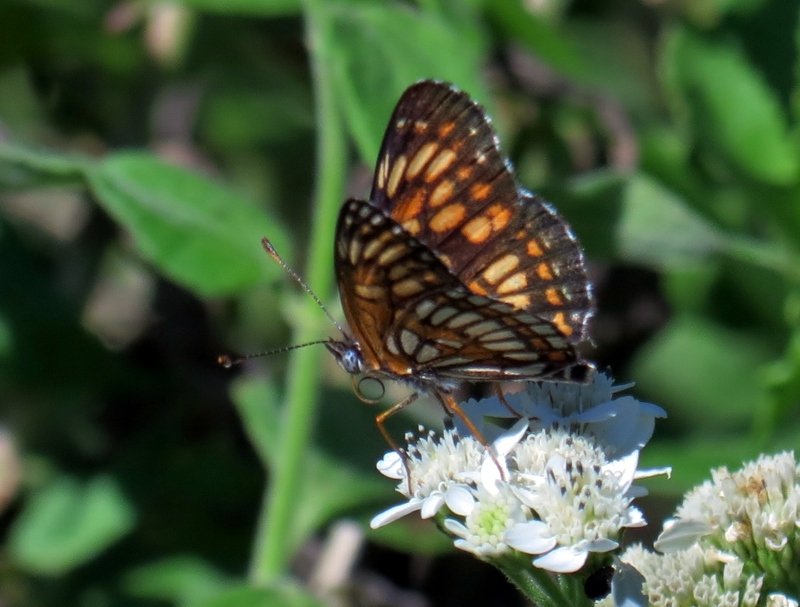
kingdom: Animalia
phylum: Arthropoda
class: Insecta
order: Lepidoptera
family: Nymphalidae
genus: Texola
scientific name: Texola elada
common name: Elada Checkerspot
